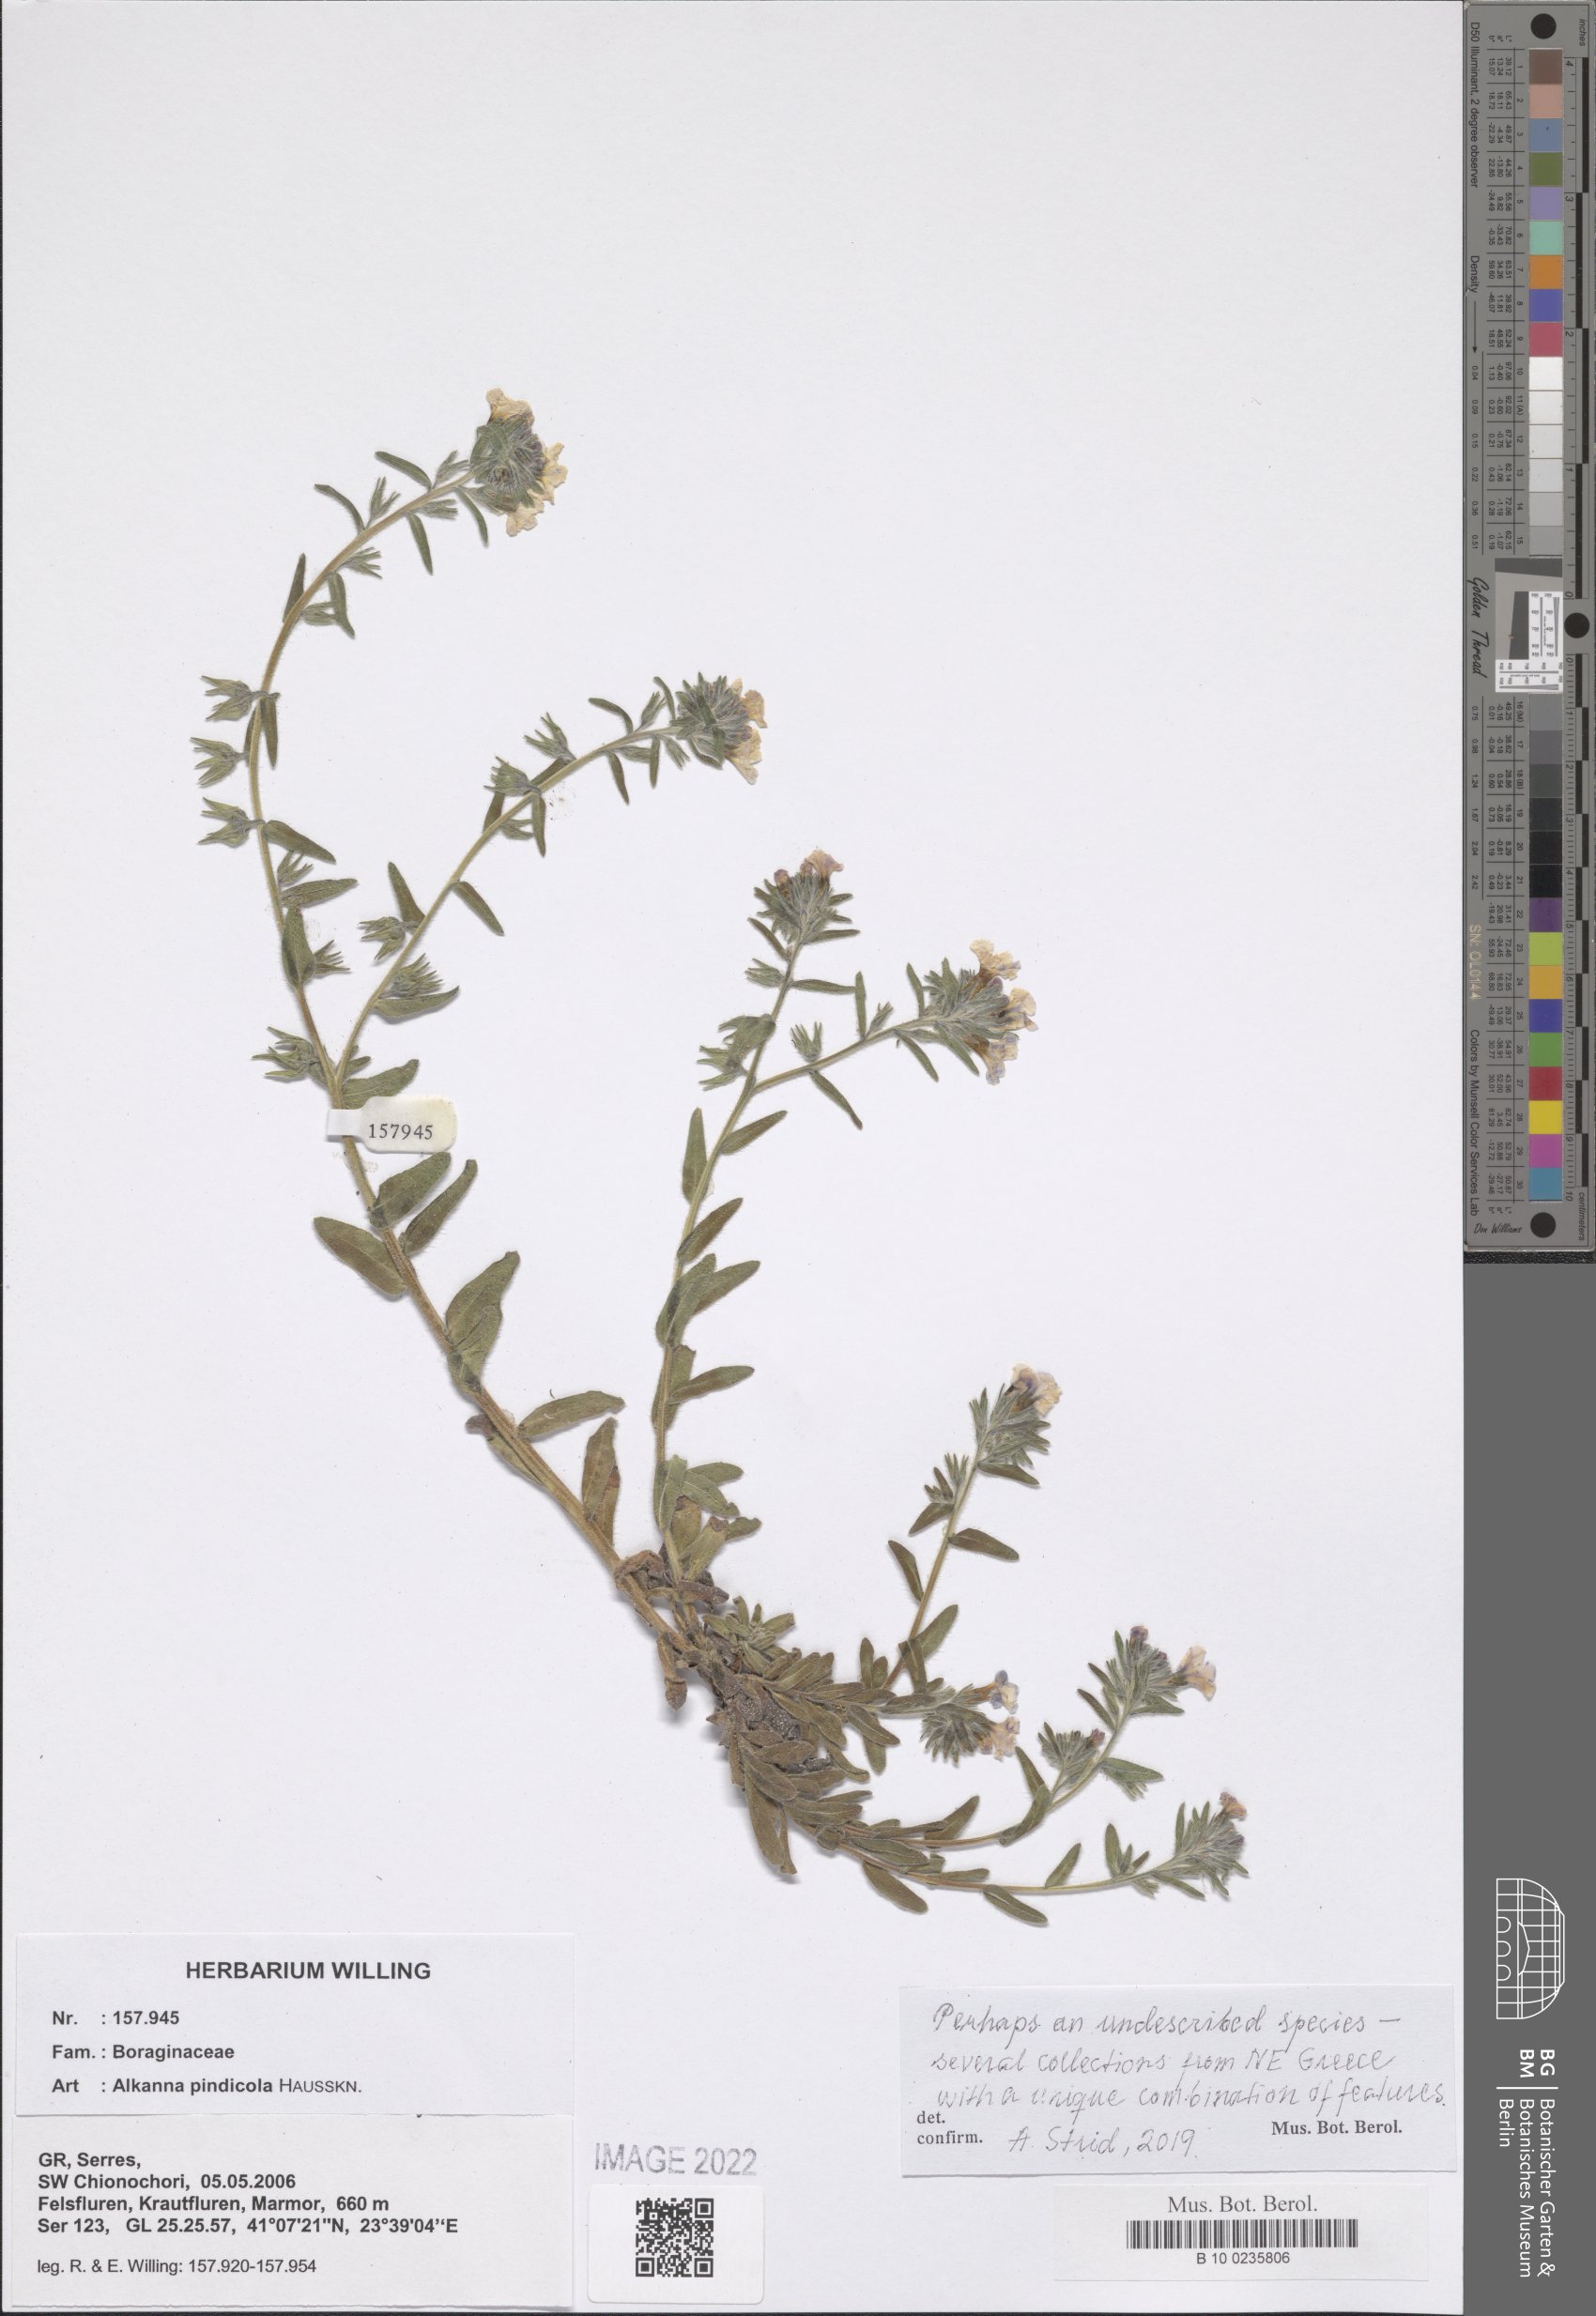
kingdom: Plantae
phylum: Tracheophyta
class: Magnoliopsida
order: Boraginales
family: Boraginaceae
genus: Alkanna
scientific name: Alkanna pindicola
